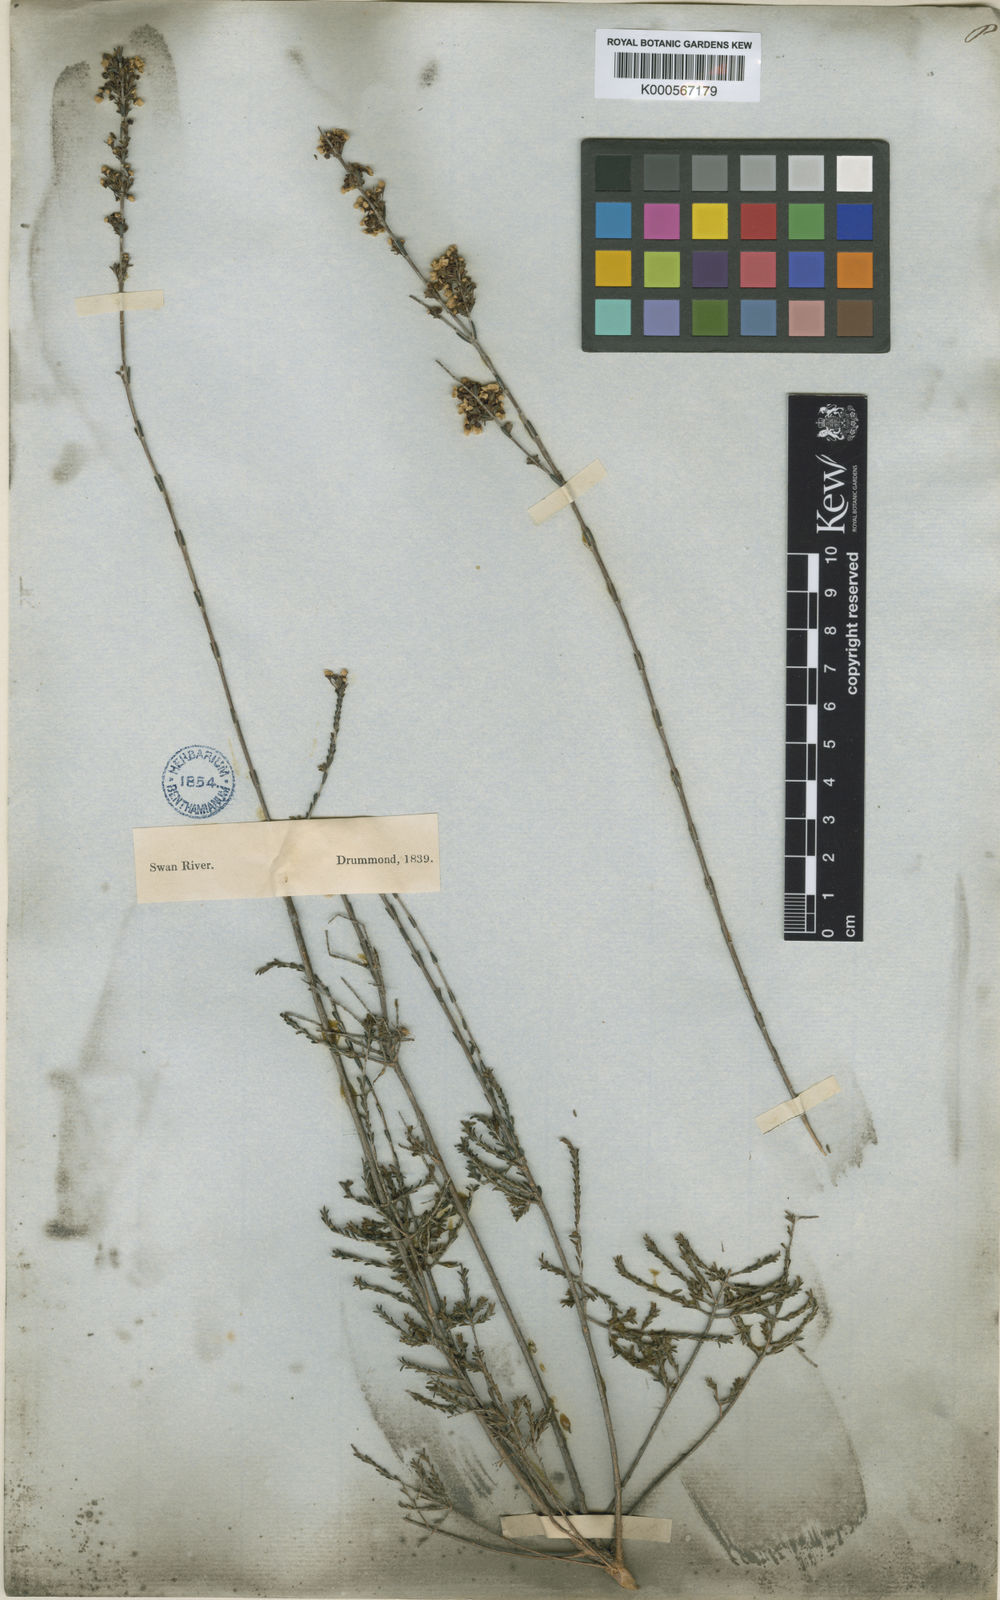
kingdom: Plantae
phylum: Tracheophyta
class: Magnoliopsida
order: Myrtales
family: Myrtaceae
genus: Baeckea
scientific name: Baeckea
